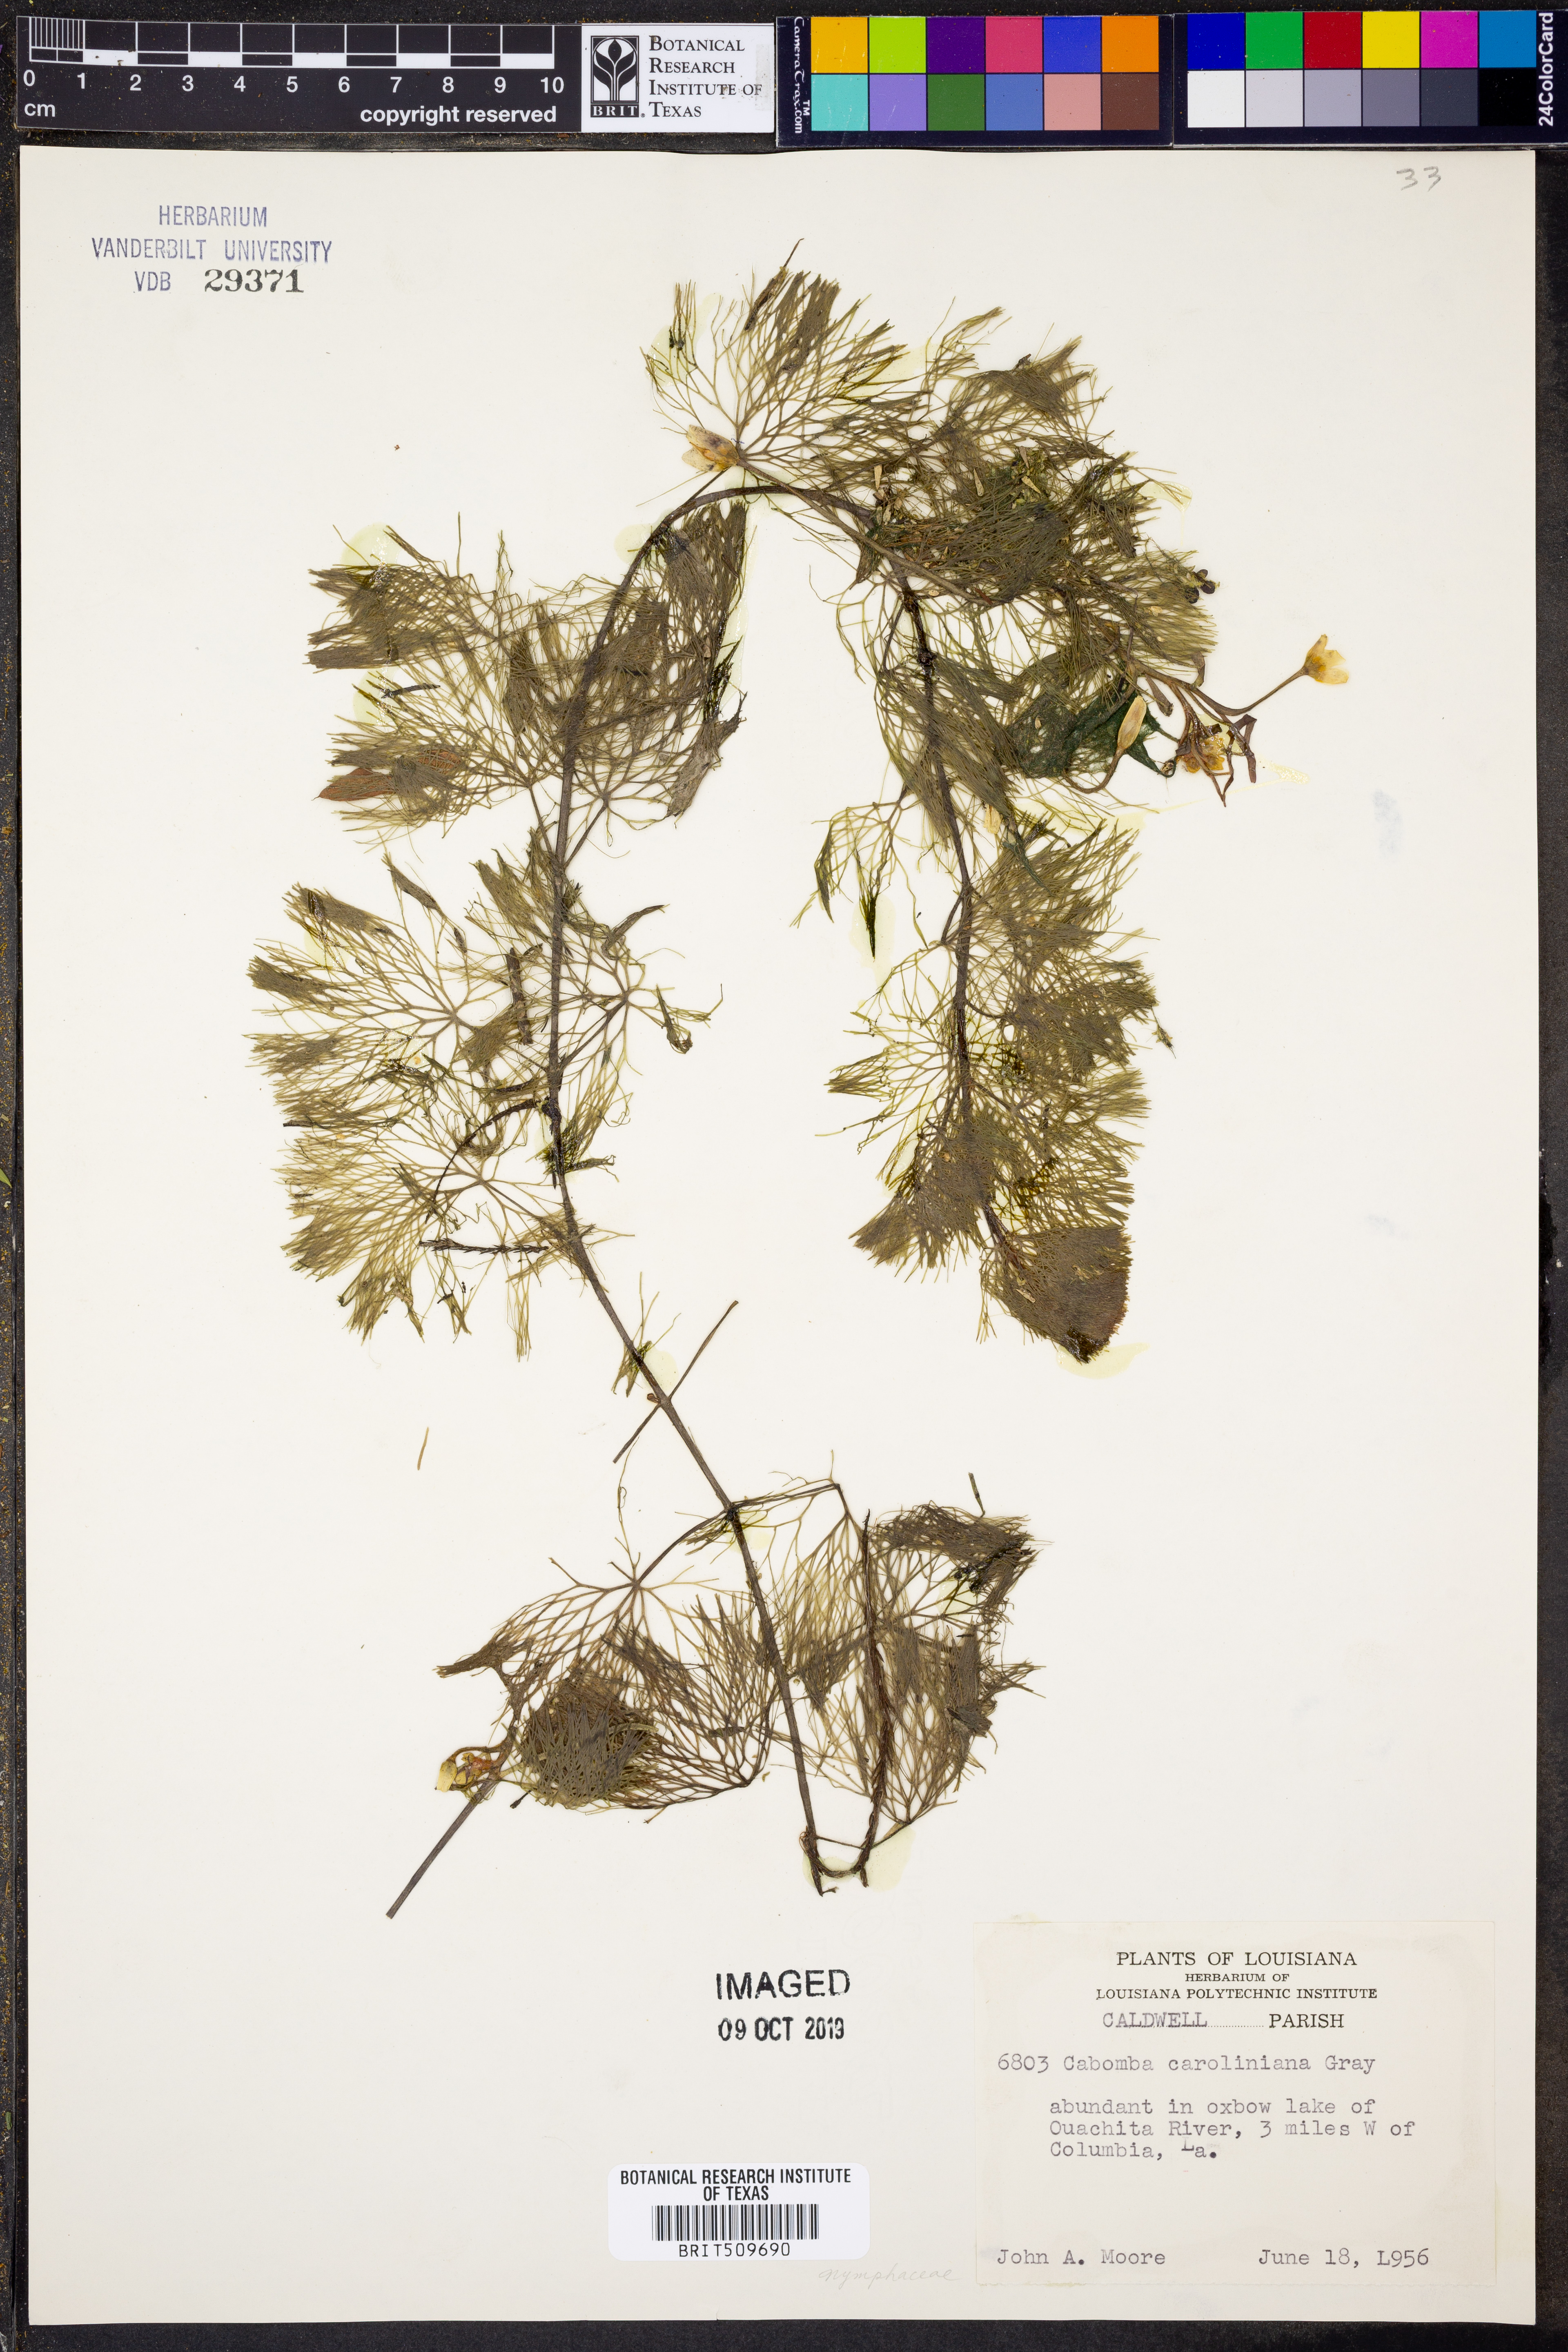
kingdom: Plantae
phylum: Tracheophyta
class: Magnoliopsida
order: Nymphaeales
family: Cabombaceae
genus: Cabomba
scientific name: Cabomba caroliniana
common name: Fanwort
